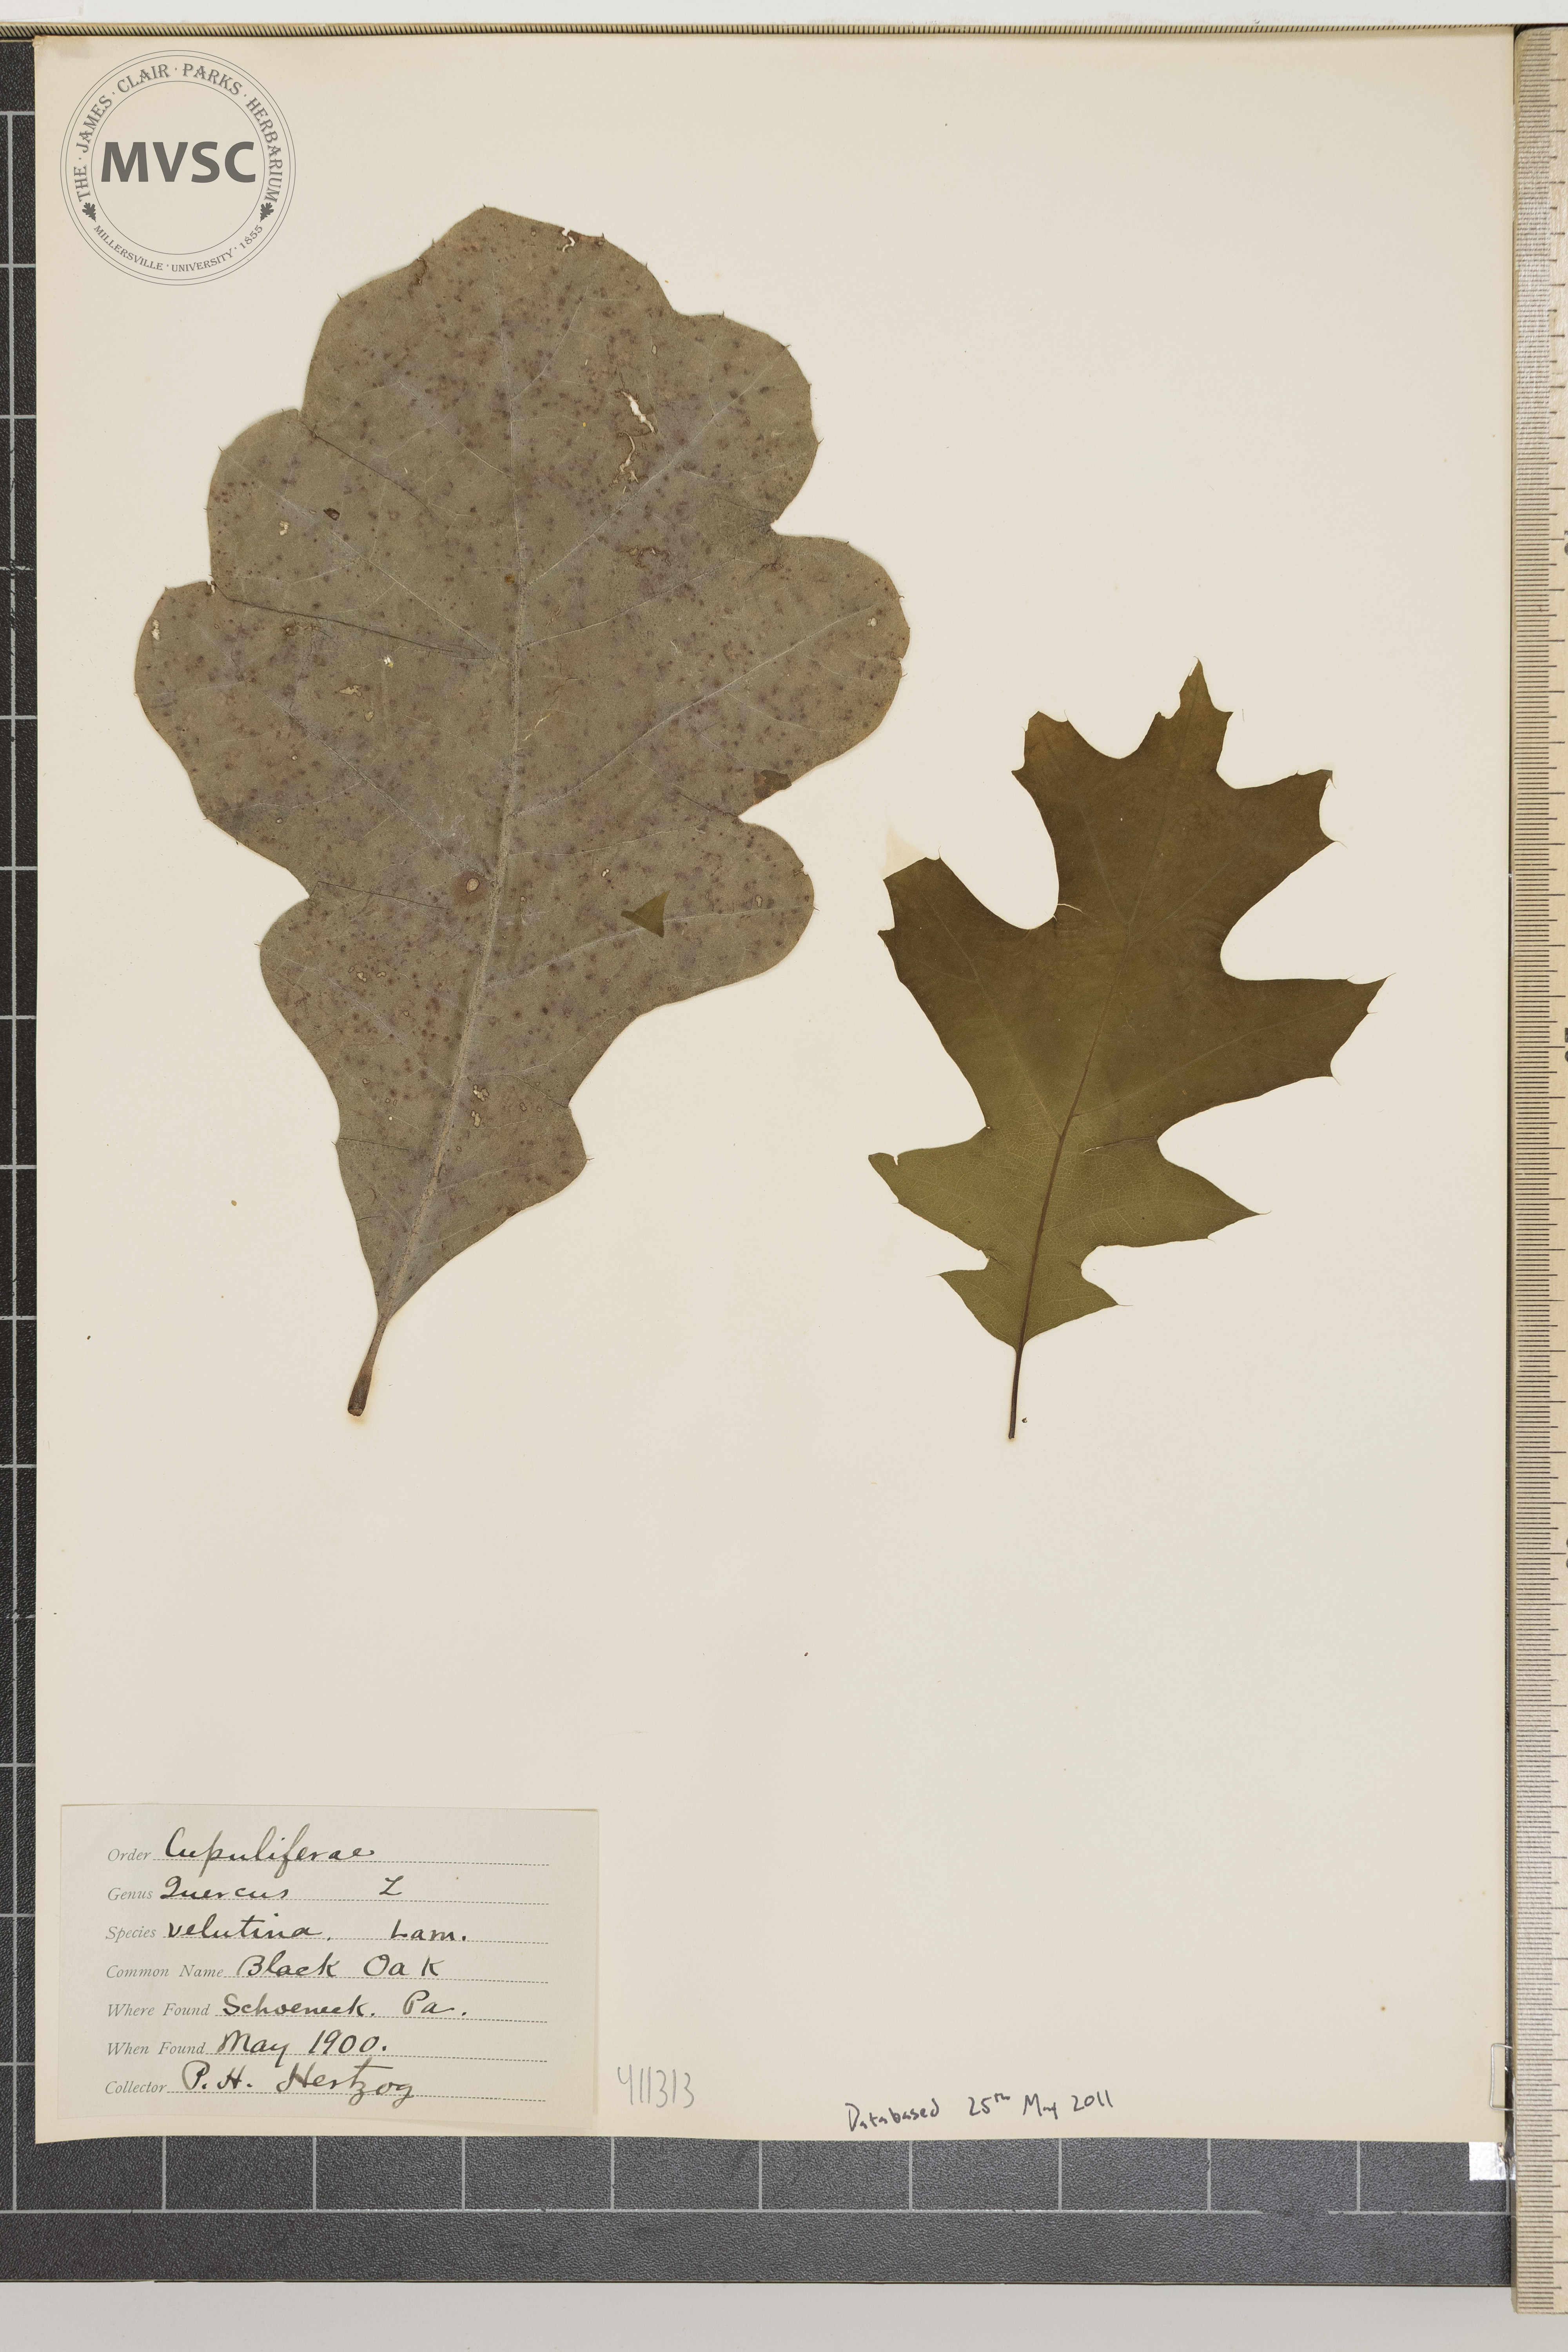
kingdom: Plantae
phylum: Tracheophyta
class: Magnoliopsida
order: Fagales
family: Fagaceae
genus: Quercus
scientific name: Quercus velutina
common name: Black oak
